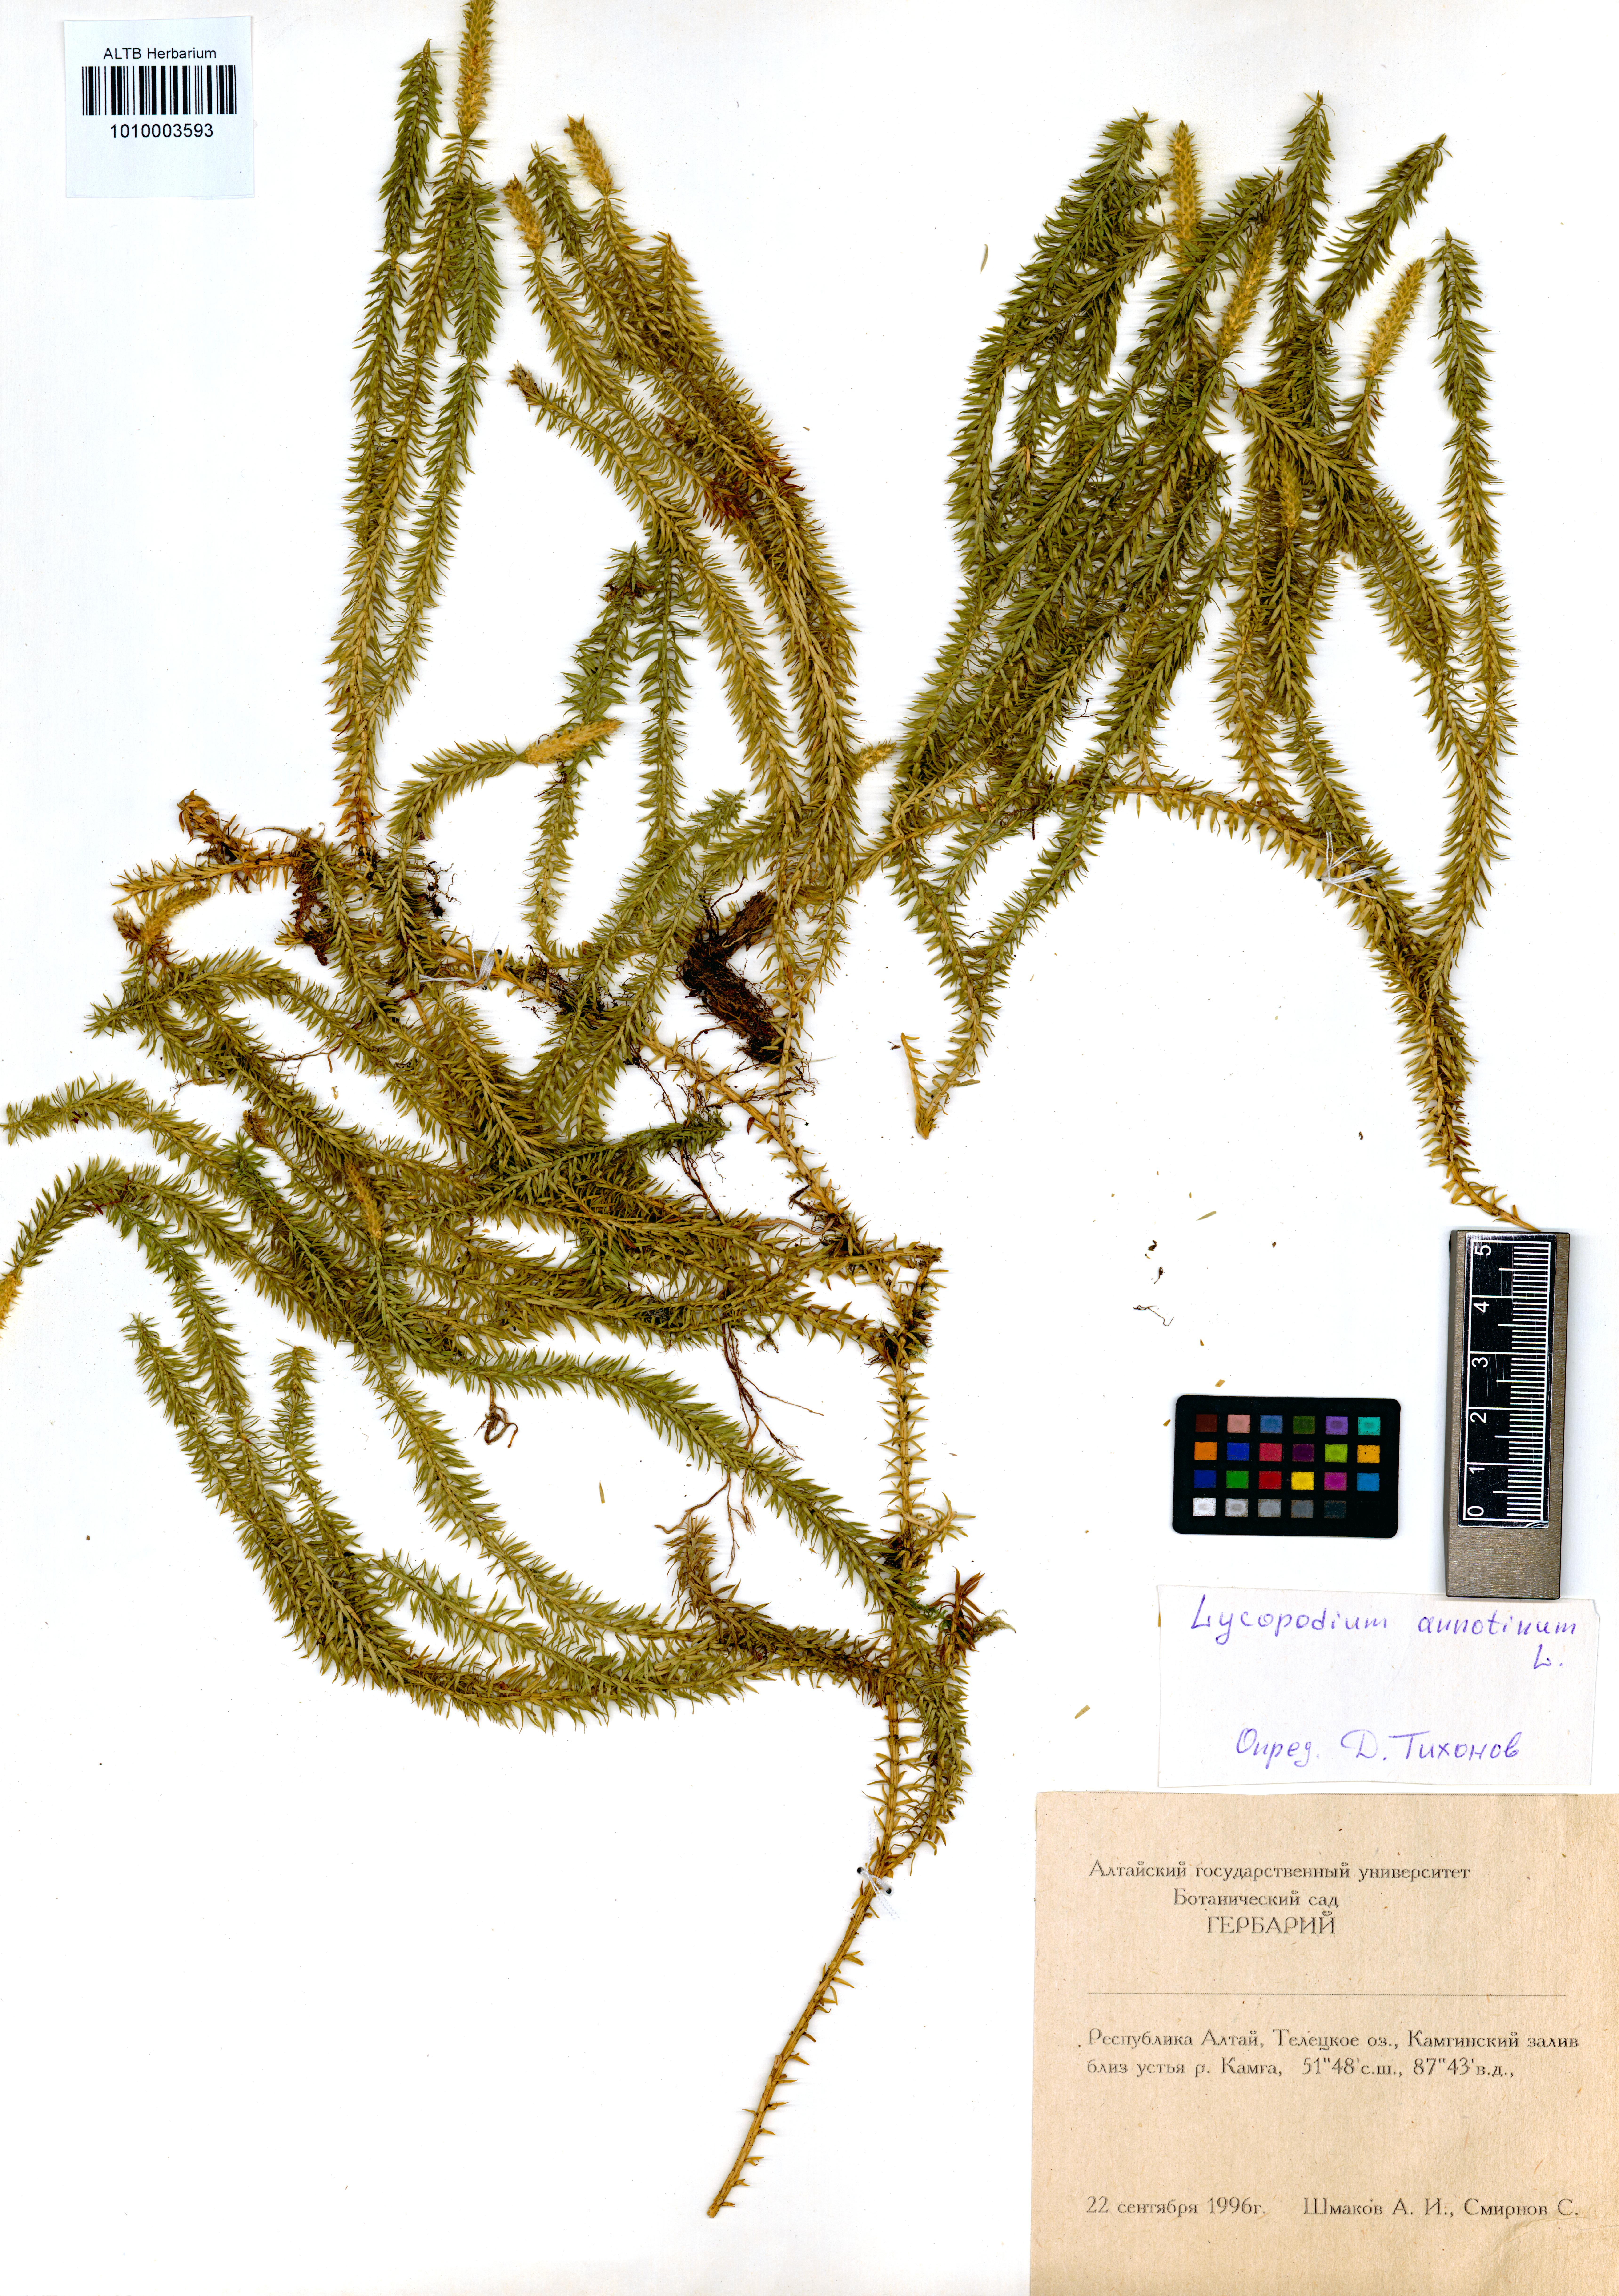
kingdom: Plantae
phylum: Tracheophyta
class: Lycopodiopsida
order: Lycopodiales
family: Lycopodiaceae
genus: Spinulum
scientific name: Spinulum annotinum
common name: Interrupted club-moss
